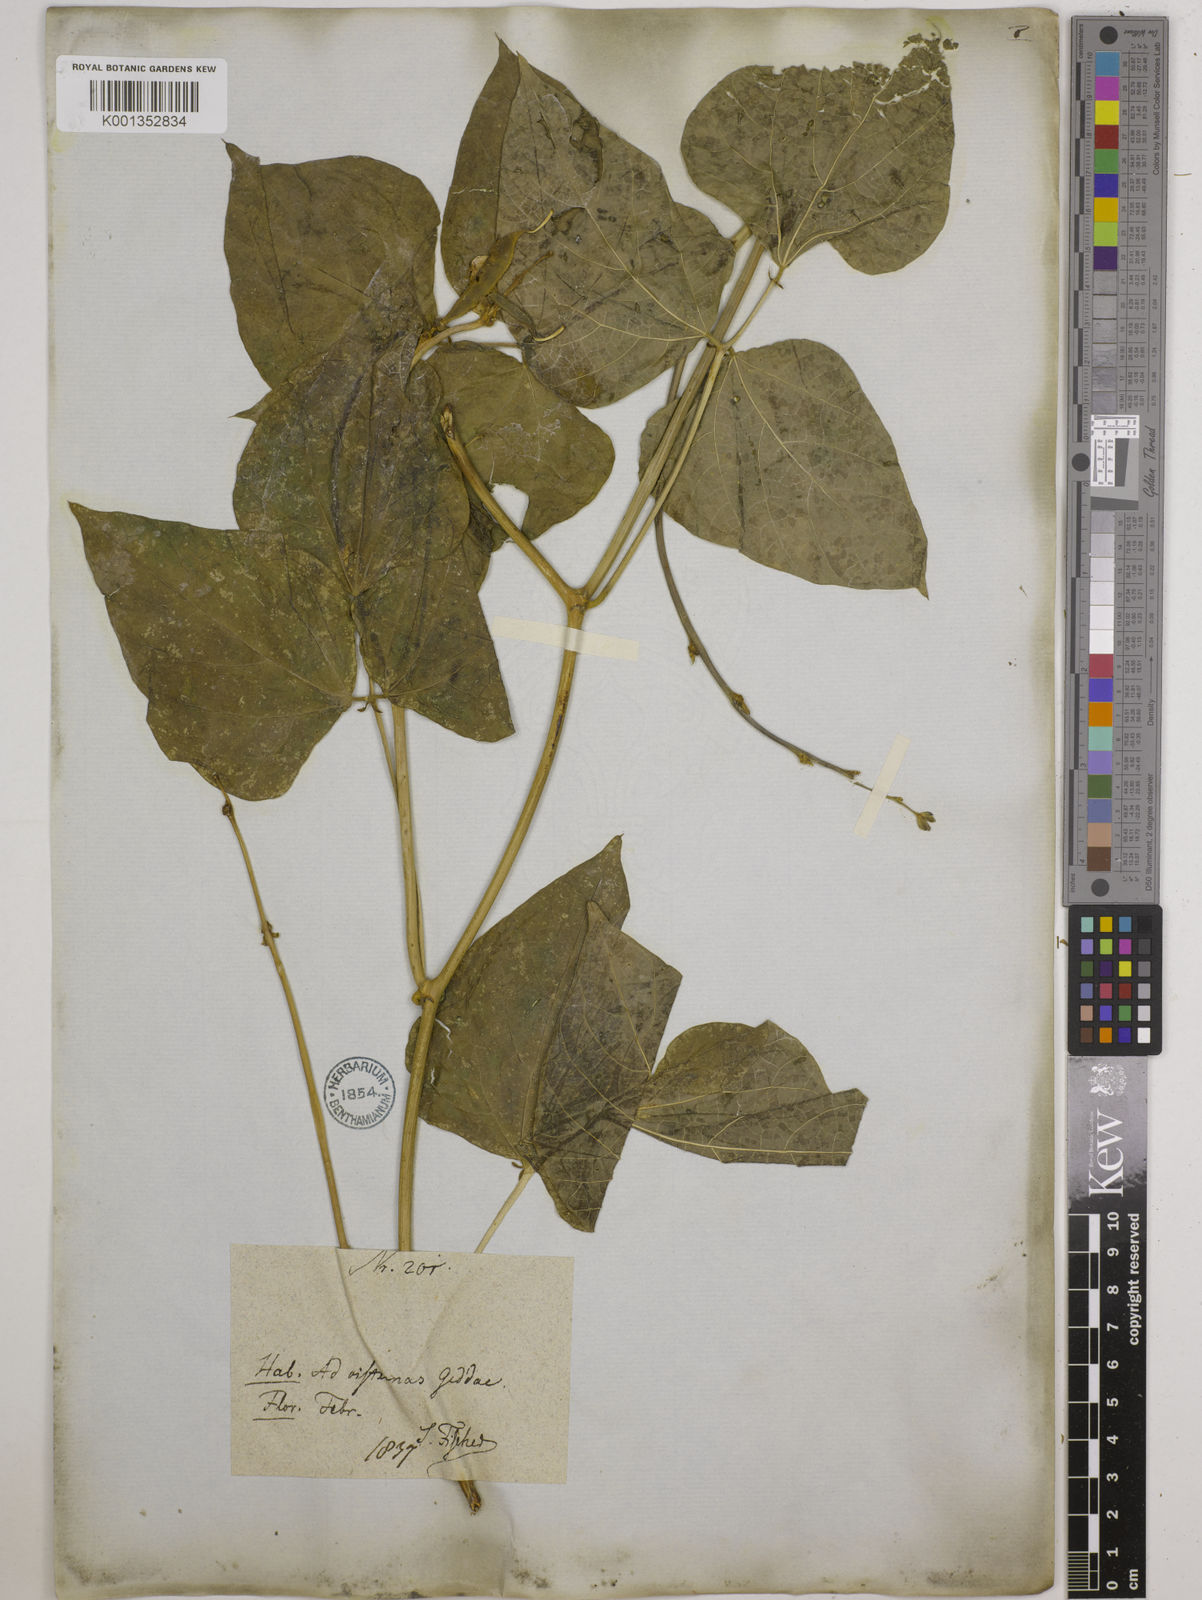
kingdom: Plantae
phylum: Tracheophyta
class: Magnoliopsida
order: Fabales
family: Fabaceae
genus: Lablab
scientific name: Lablab purpureus
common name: Lablab-bean
